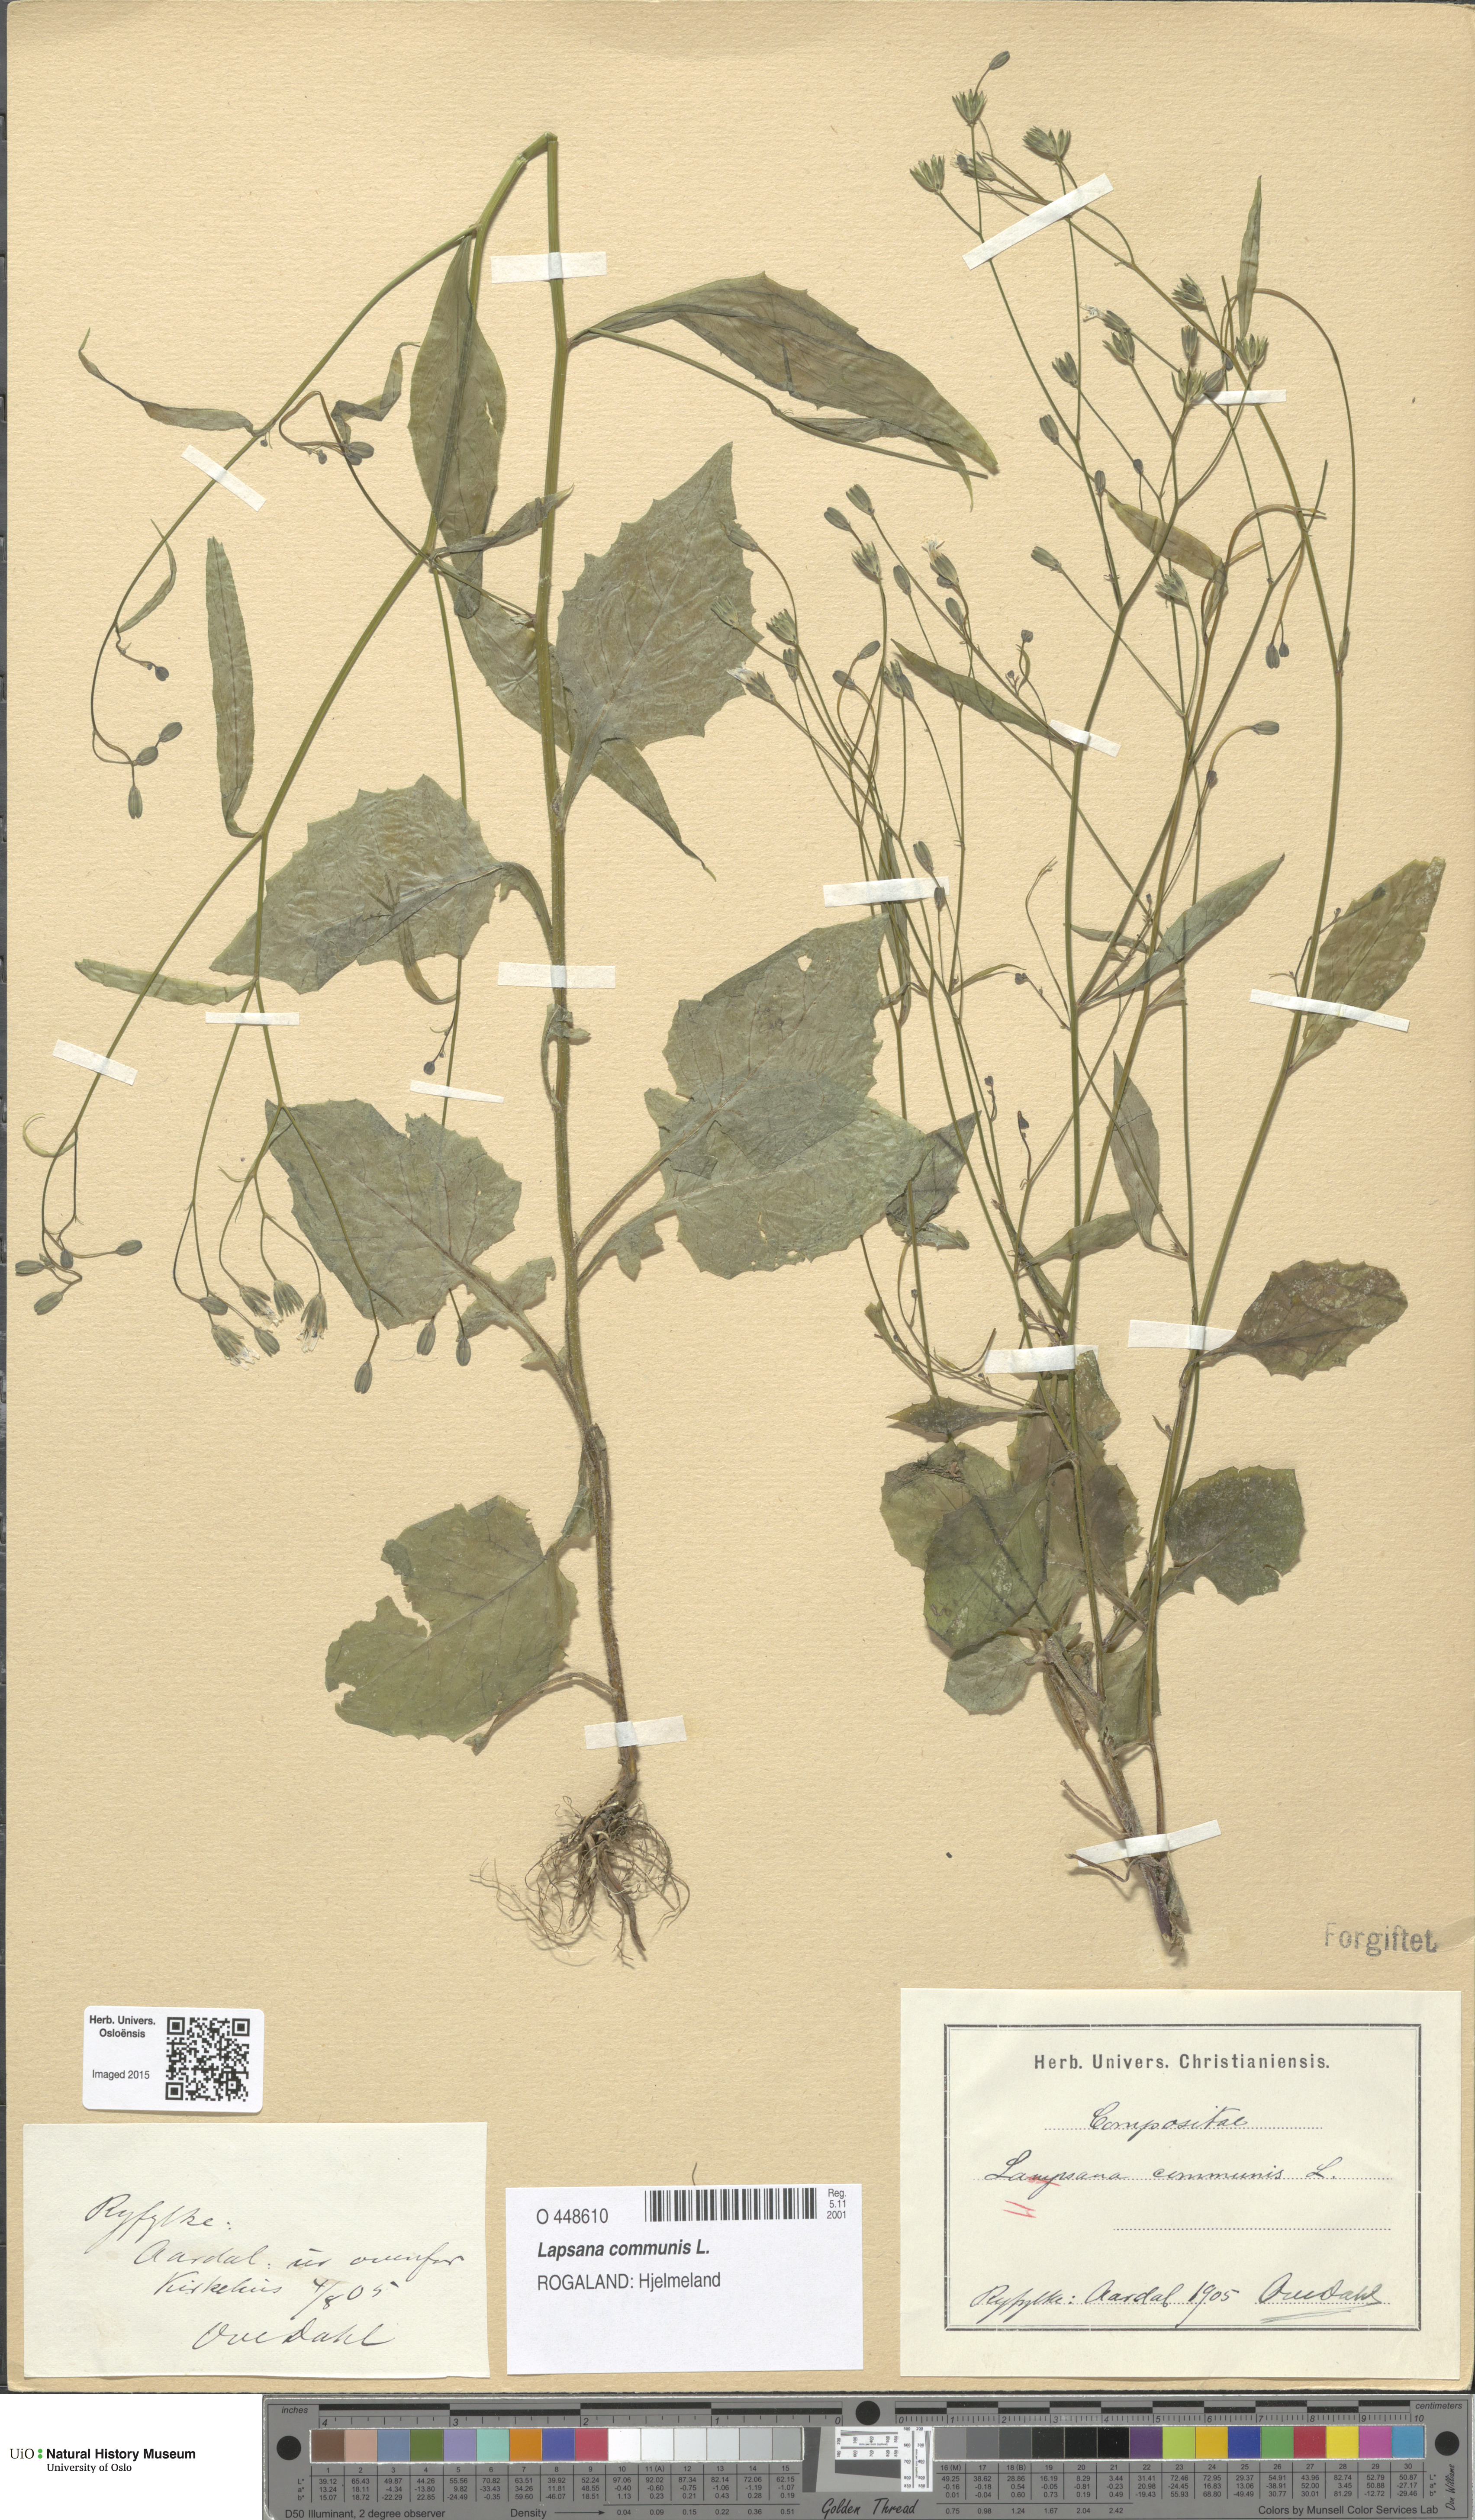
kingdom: Plantae
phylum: Tracheophyta
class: Magnoliopsida
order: Asterales
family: Asteraceae
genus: Lapsana
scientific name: Lapsana communis
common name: Nipplewort
